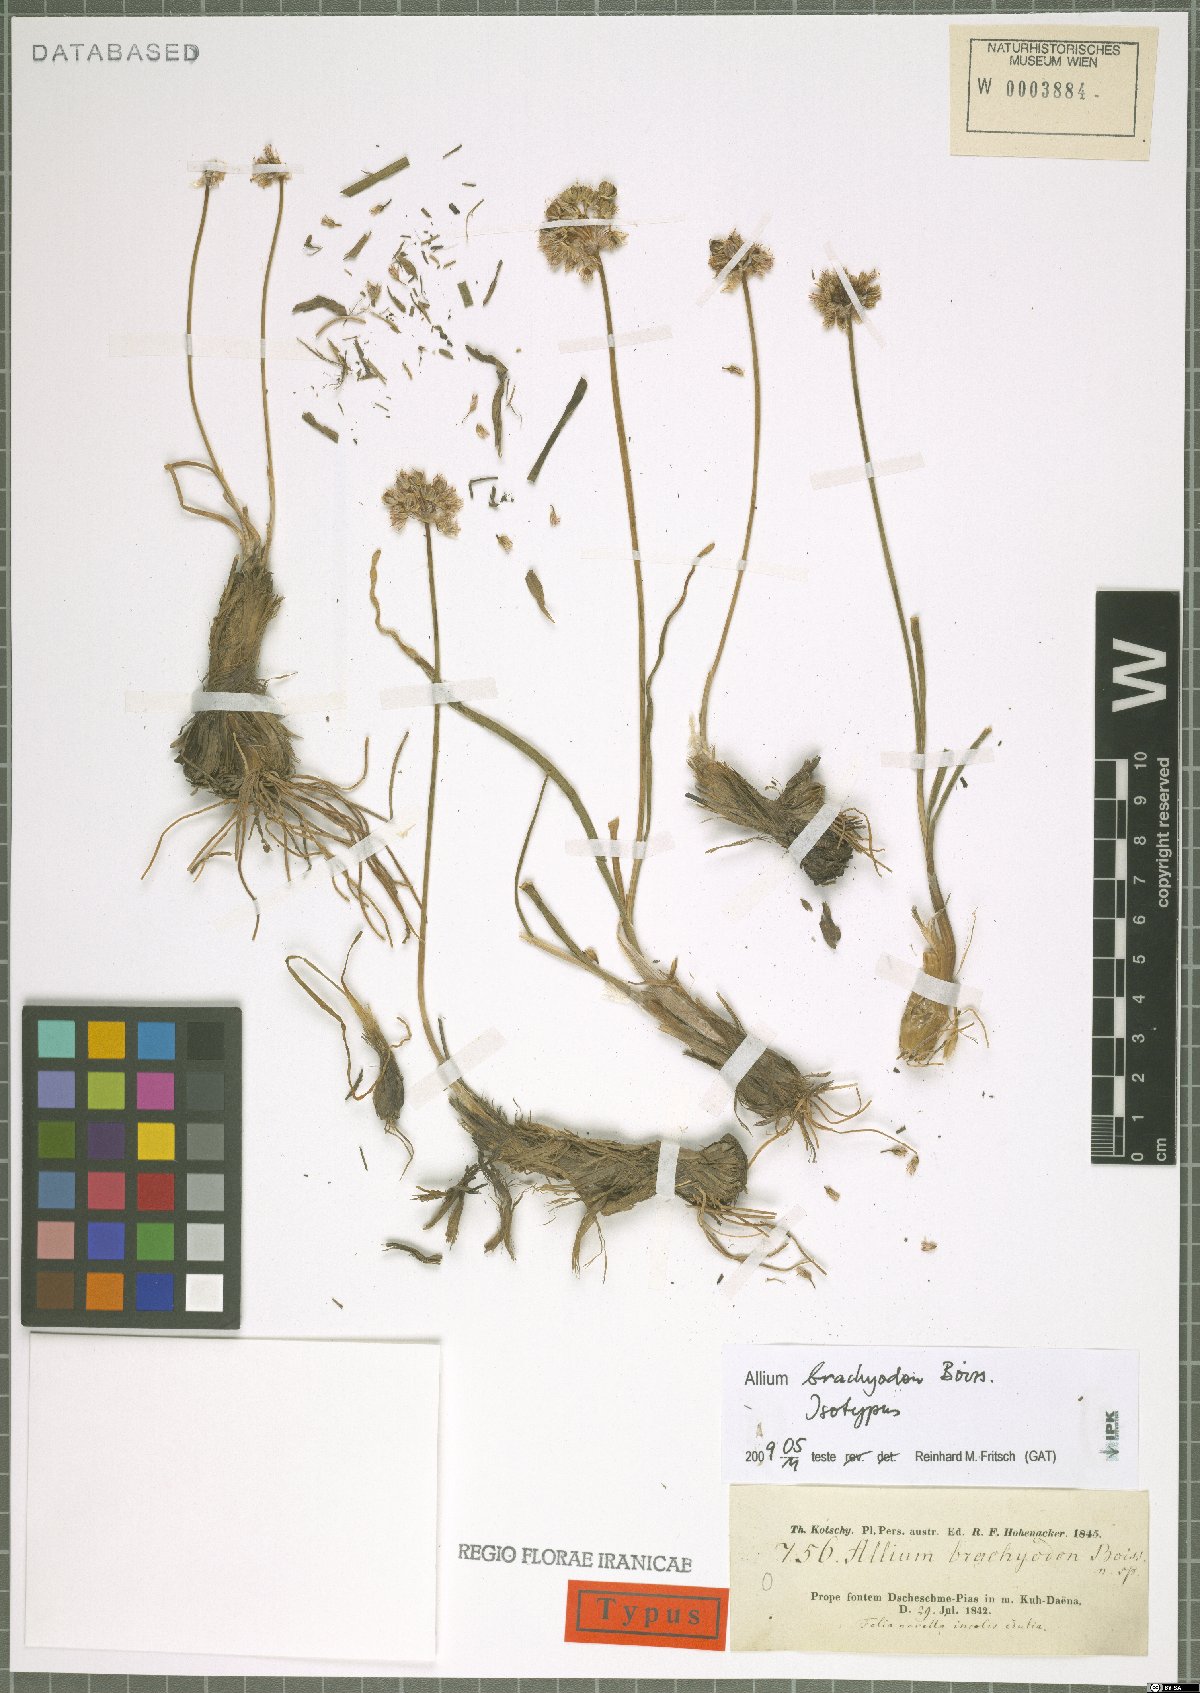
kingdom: Plantae
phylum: Tracheophyta
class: Liliopsida
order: Asparagales
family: Amaryllidaceae
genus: Allium
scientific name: Allium brachyodon
